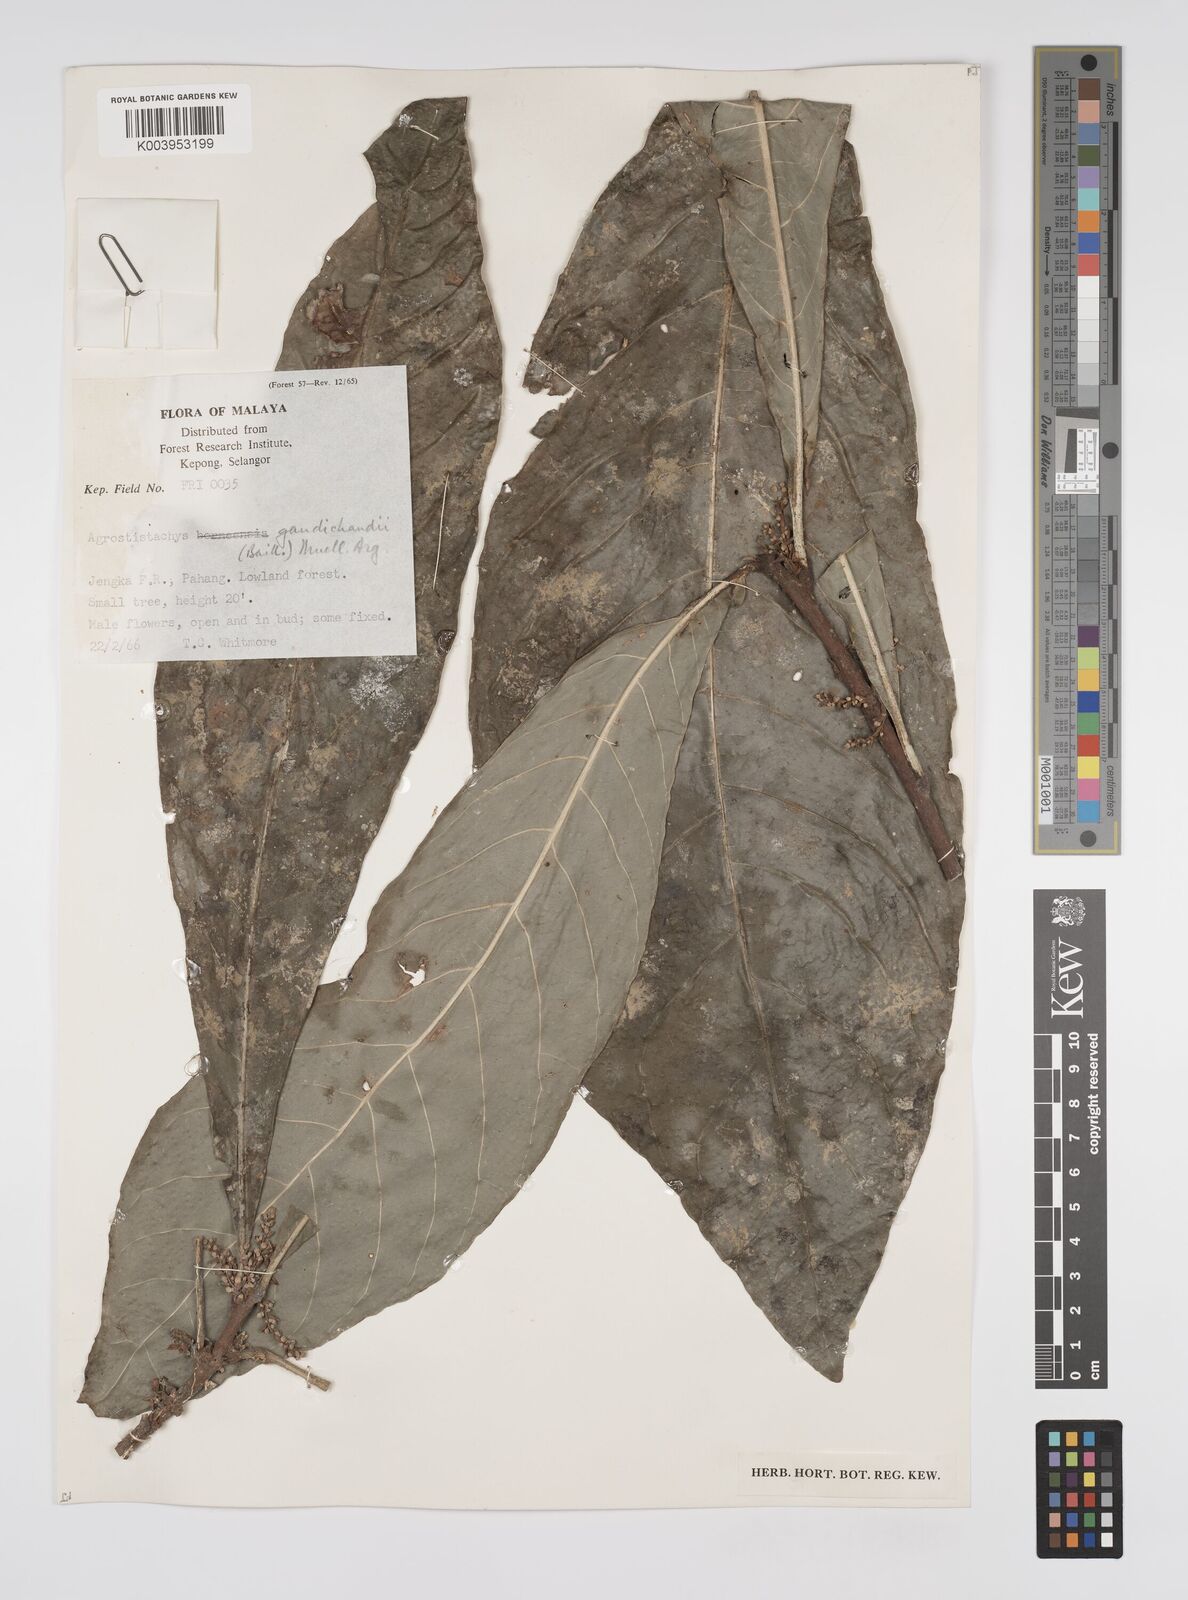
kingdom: Plantae
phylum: Tracheophyta
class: Magnoliopsida
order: Malpighiales
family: Euphorbiaceae
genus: Agrostistachys
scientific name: Agrostistachys gaudichaudii
